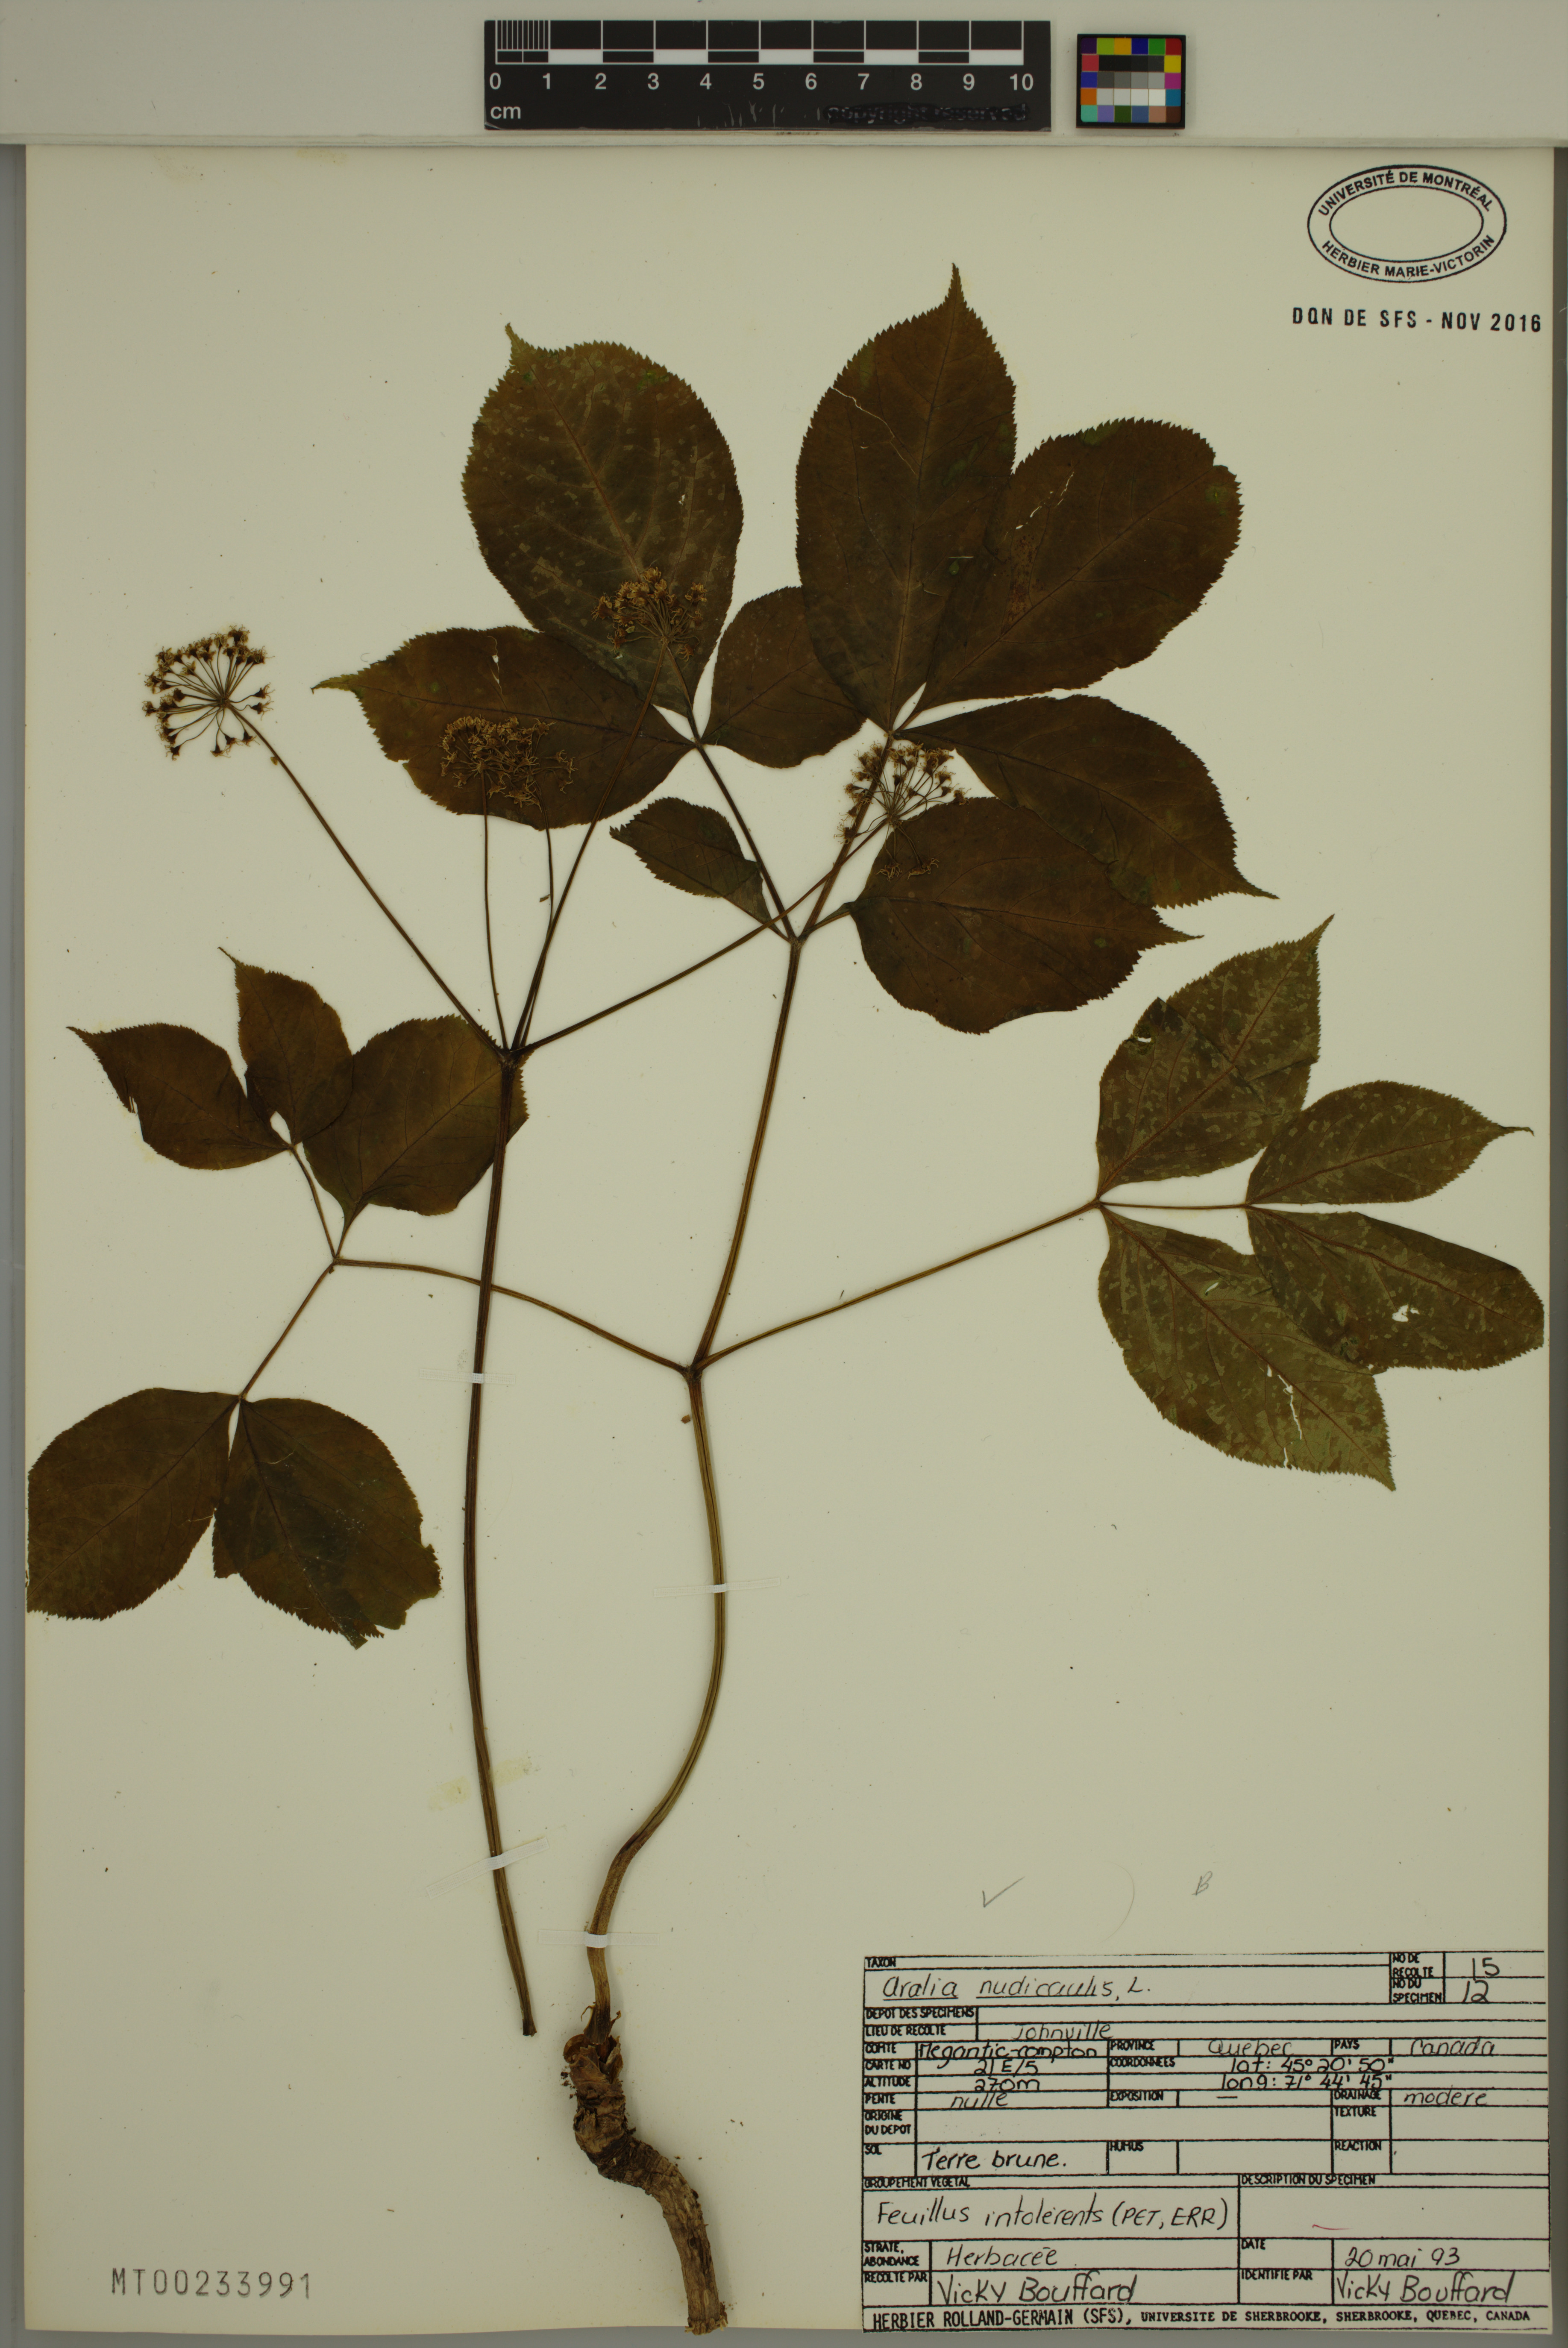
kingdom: Plantae
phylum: Tracheophyta
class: Magnoliopsida
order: Apiales
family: Araliaceae
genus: Aralia
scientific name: Aralia nudicaulis
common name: Wild sarsaparilla
